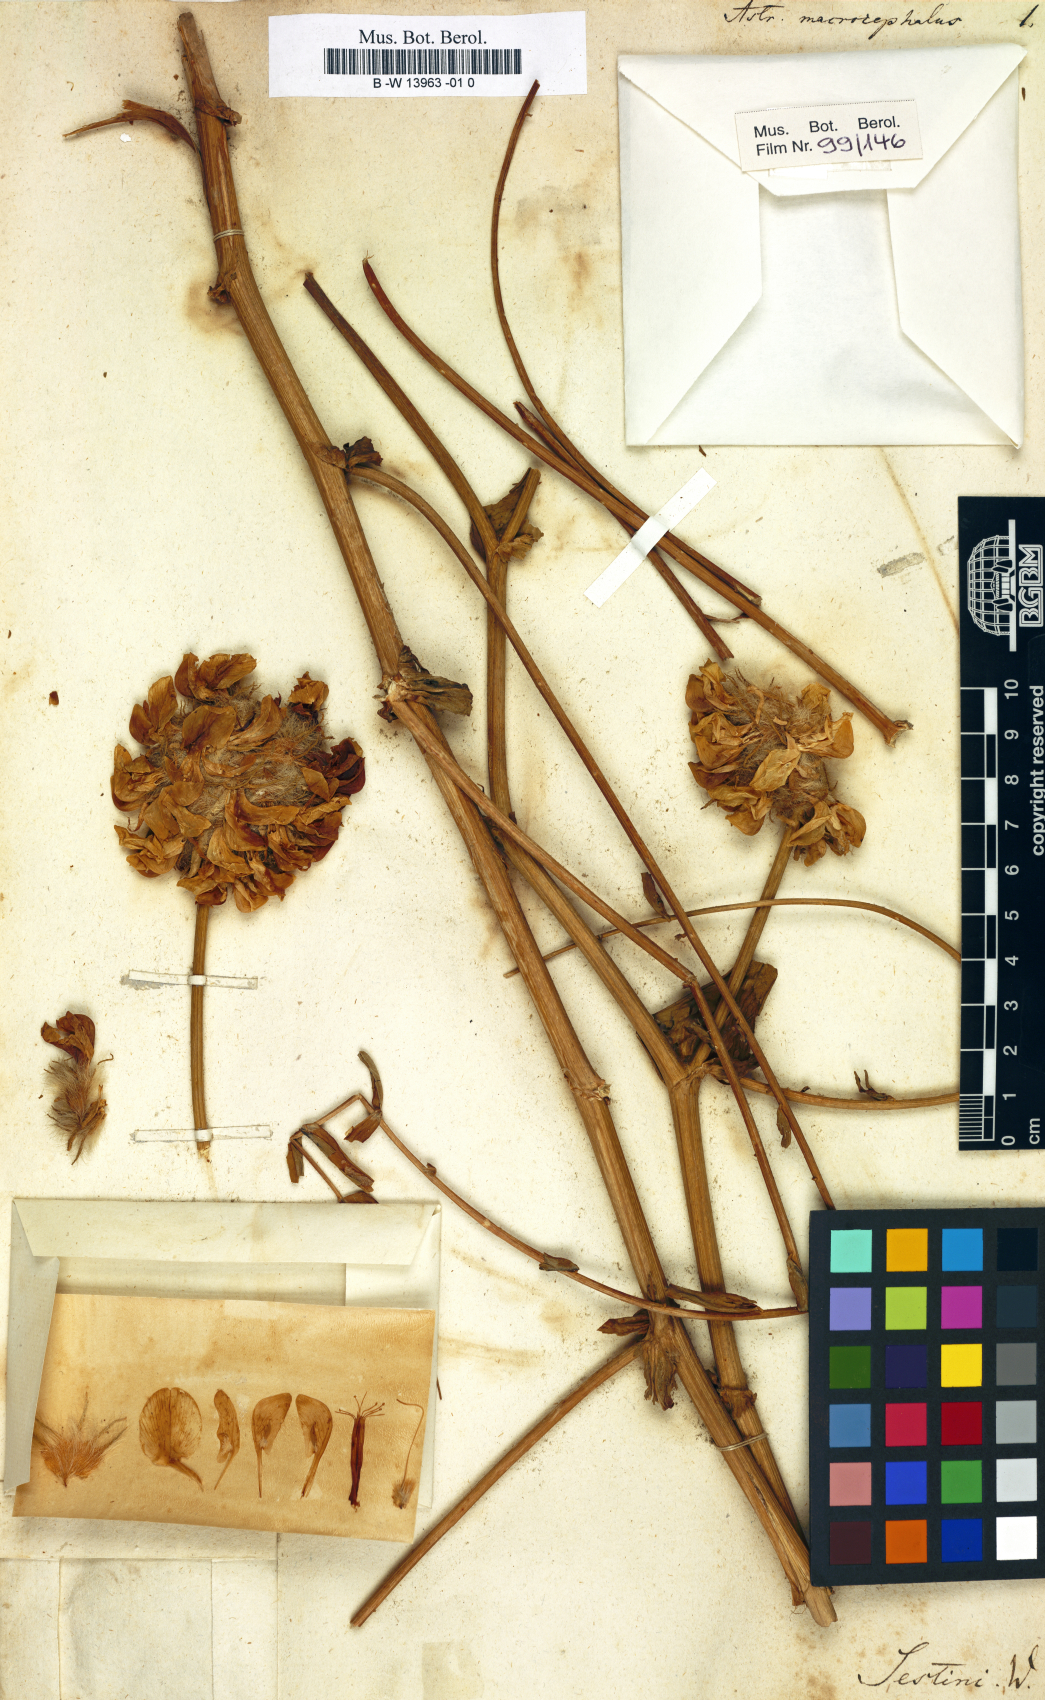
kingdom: Plantae
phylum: Tracheophyta
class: Magnoliopsida
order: Fabales
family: Fabaceae
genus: Astragalus
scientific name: Astragalus macrocephalus
